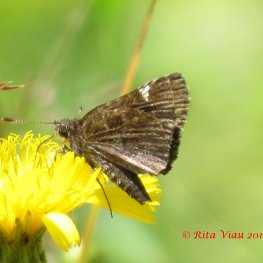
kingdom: Animalia
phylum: Arthropoda
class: Insecta
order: Lepidoptera
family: Hesperiidae
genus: Mastor
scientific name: Mastor vialis
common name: Common Roadside-Skipper
